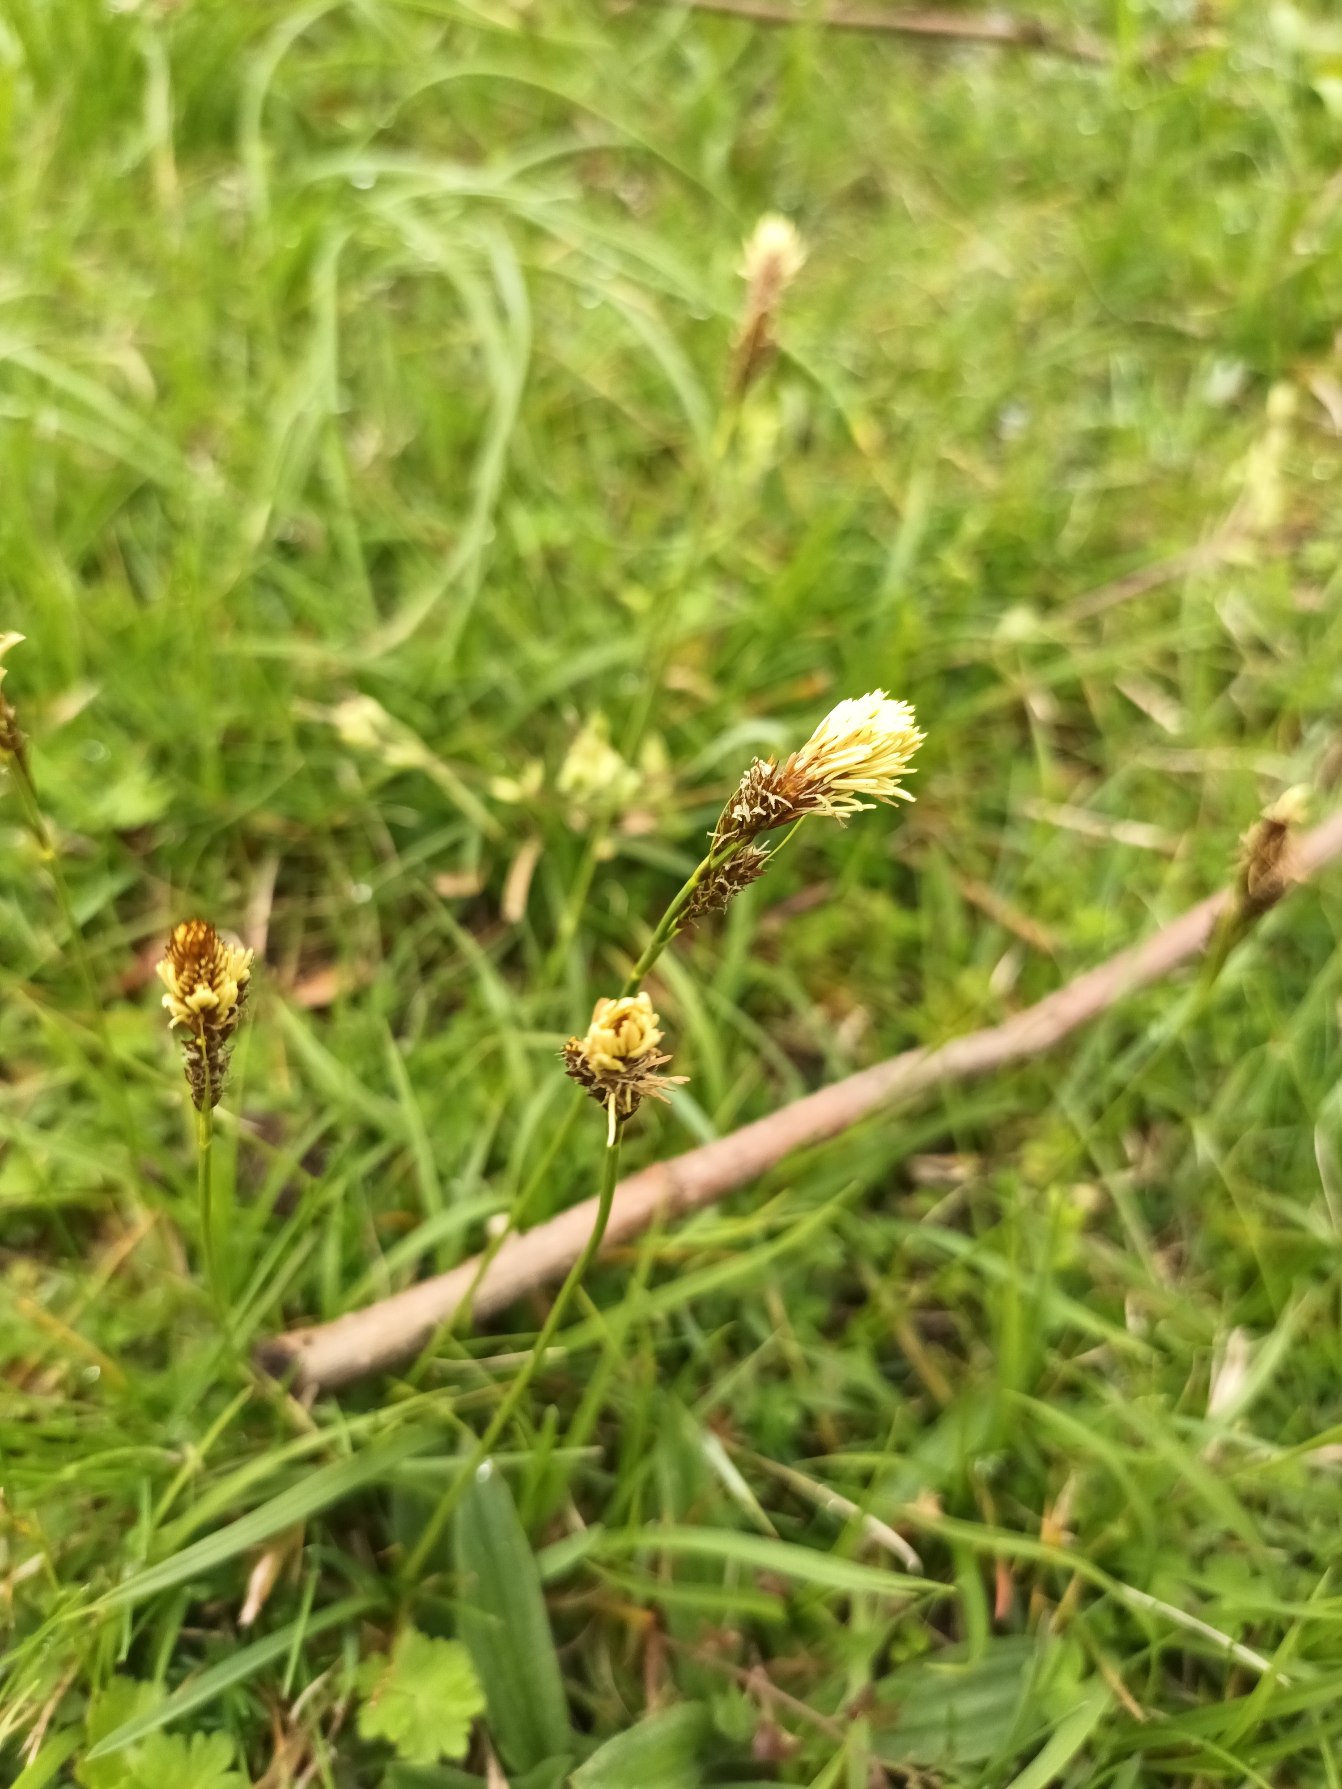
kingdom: Plantae
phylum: Tracheophyta
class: Liliopsida
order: Poales
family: Cyperaceae
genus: Carex
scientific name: Carex caryophyllea
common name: Vår-star
